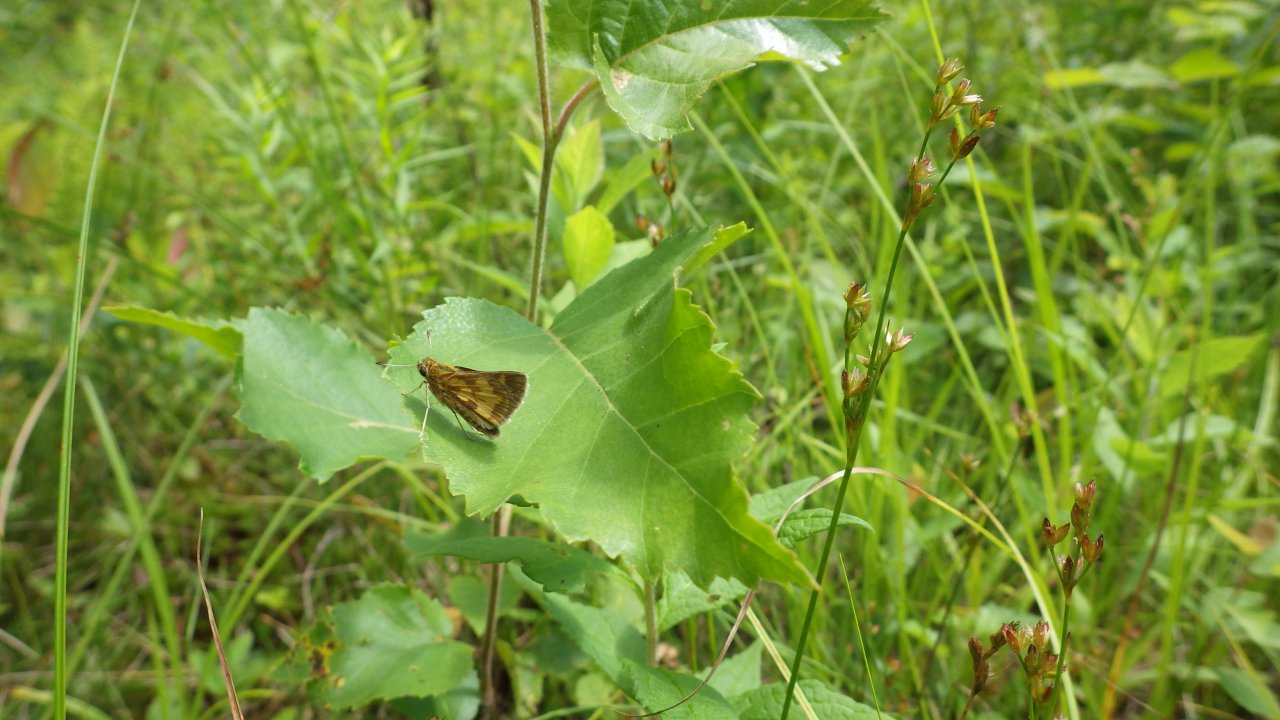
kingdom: Animalia
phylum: Arthropoda
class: Insecta
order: Lepidoptera
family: Hesperiidae
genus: Polites
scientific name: Polites coras
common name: Peck's Skipper
